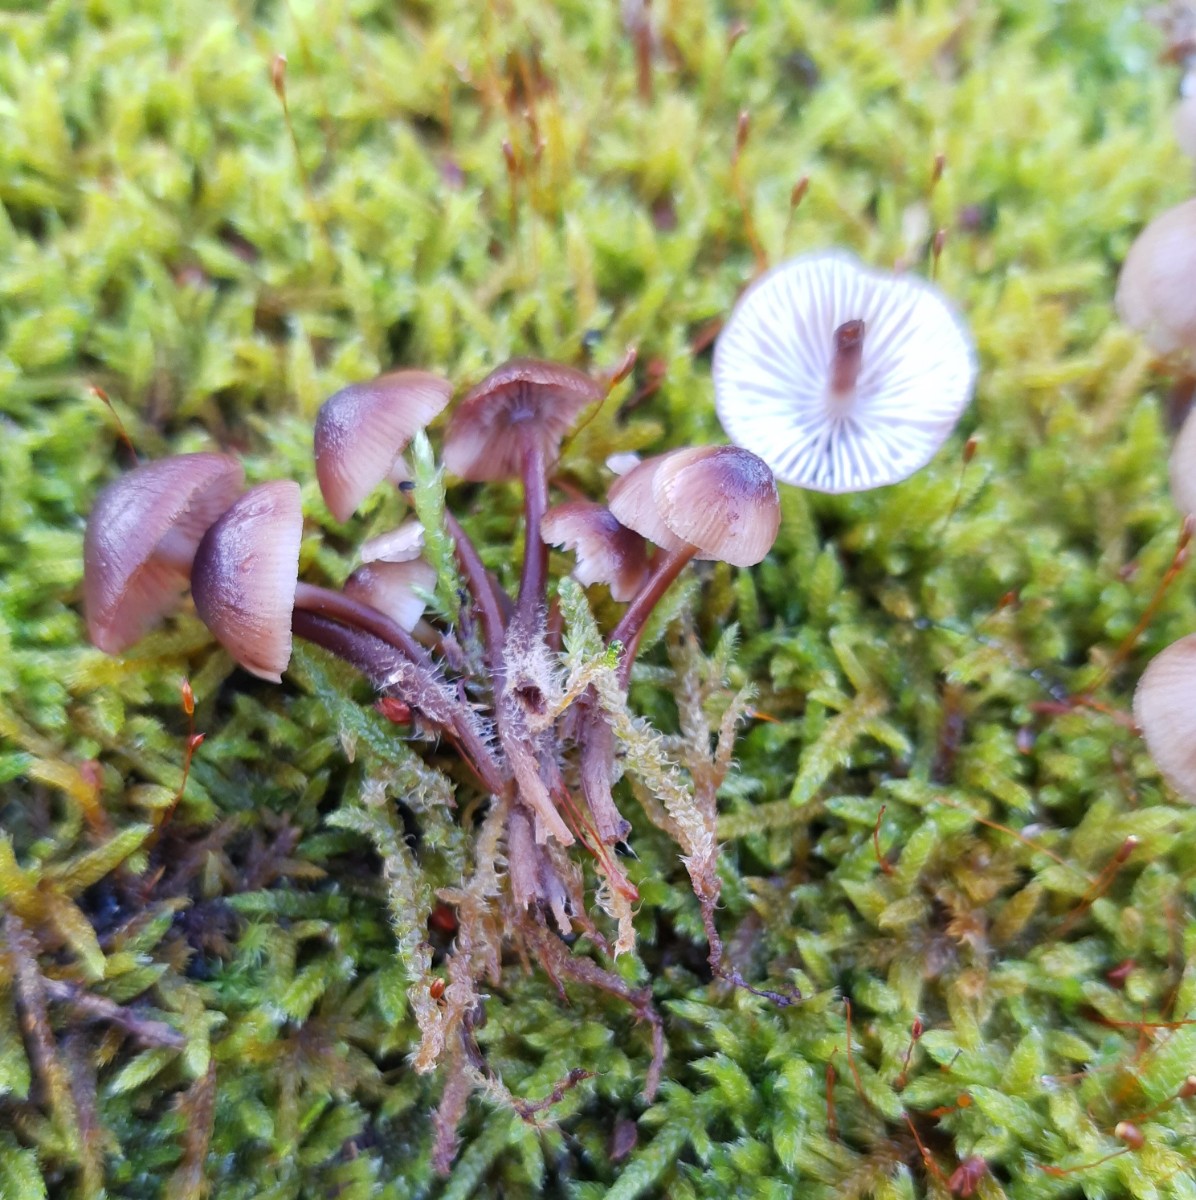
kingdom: Fungi
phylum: Basidiomycota
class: Agaricomycetes
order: Agaricales
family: Mycenaceae
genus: Mycena
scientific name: Mycena tintinnabulum
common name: vinter-huesvamp
